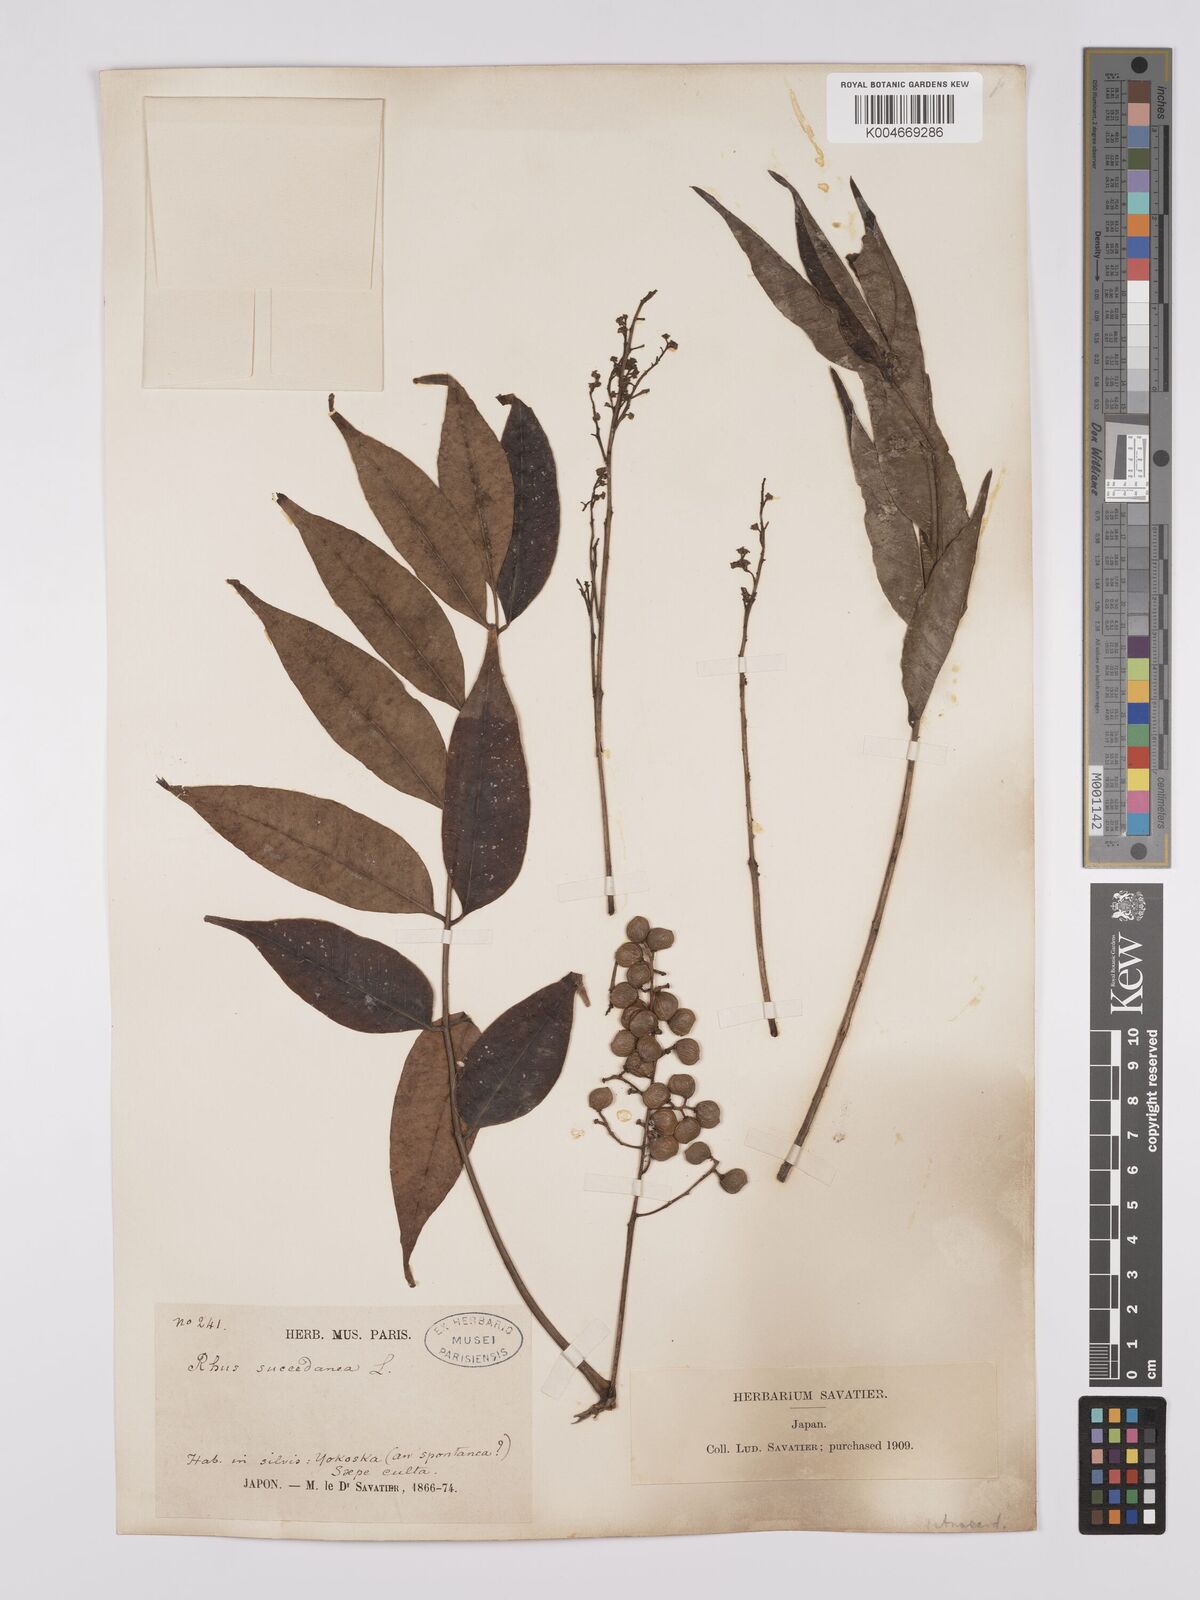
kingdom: Plantae
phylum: Tracheophyta
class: Magnoliopsida
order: Sapindales
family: Anacardiaceae
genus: Toxicodendron
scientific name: Toxicodendron succedaneum
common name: Wax tree
